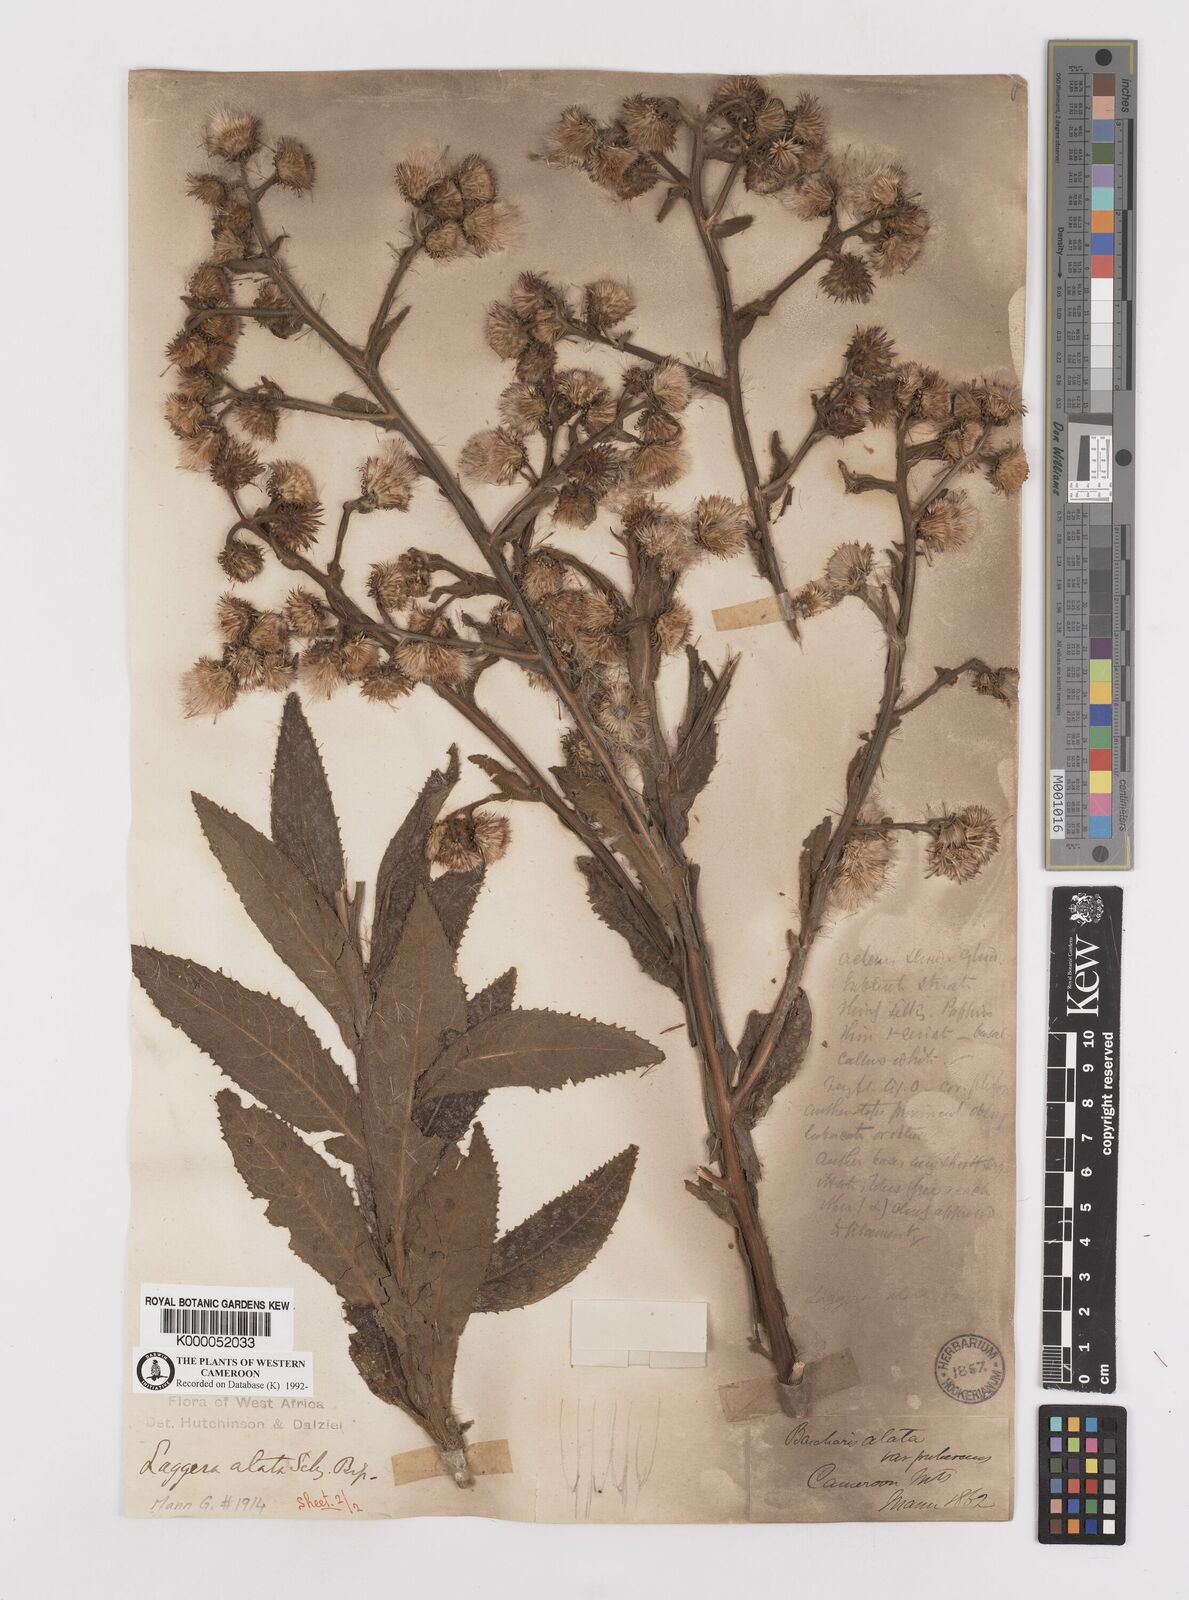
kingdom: Plantae
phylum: Tracheophyta
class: Magnoliopsida
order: Asterales
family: Asteraceae
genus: Laggera
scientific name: Laggera crispata
